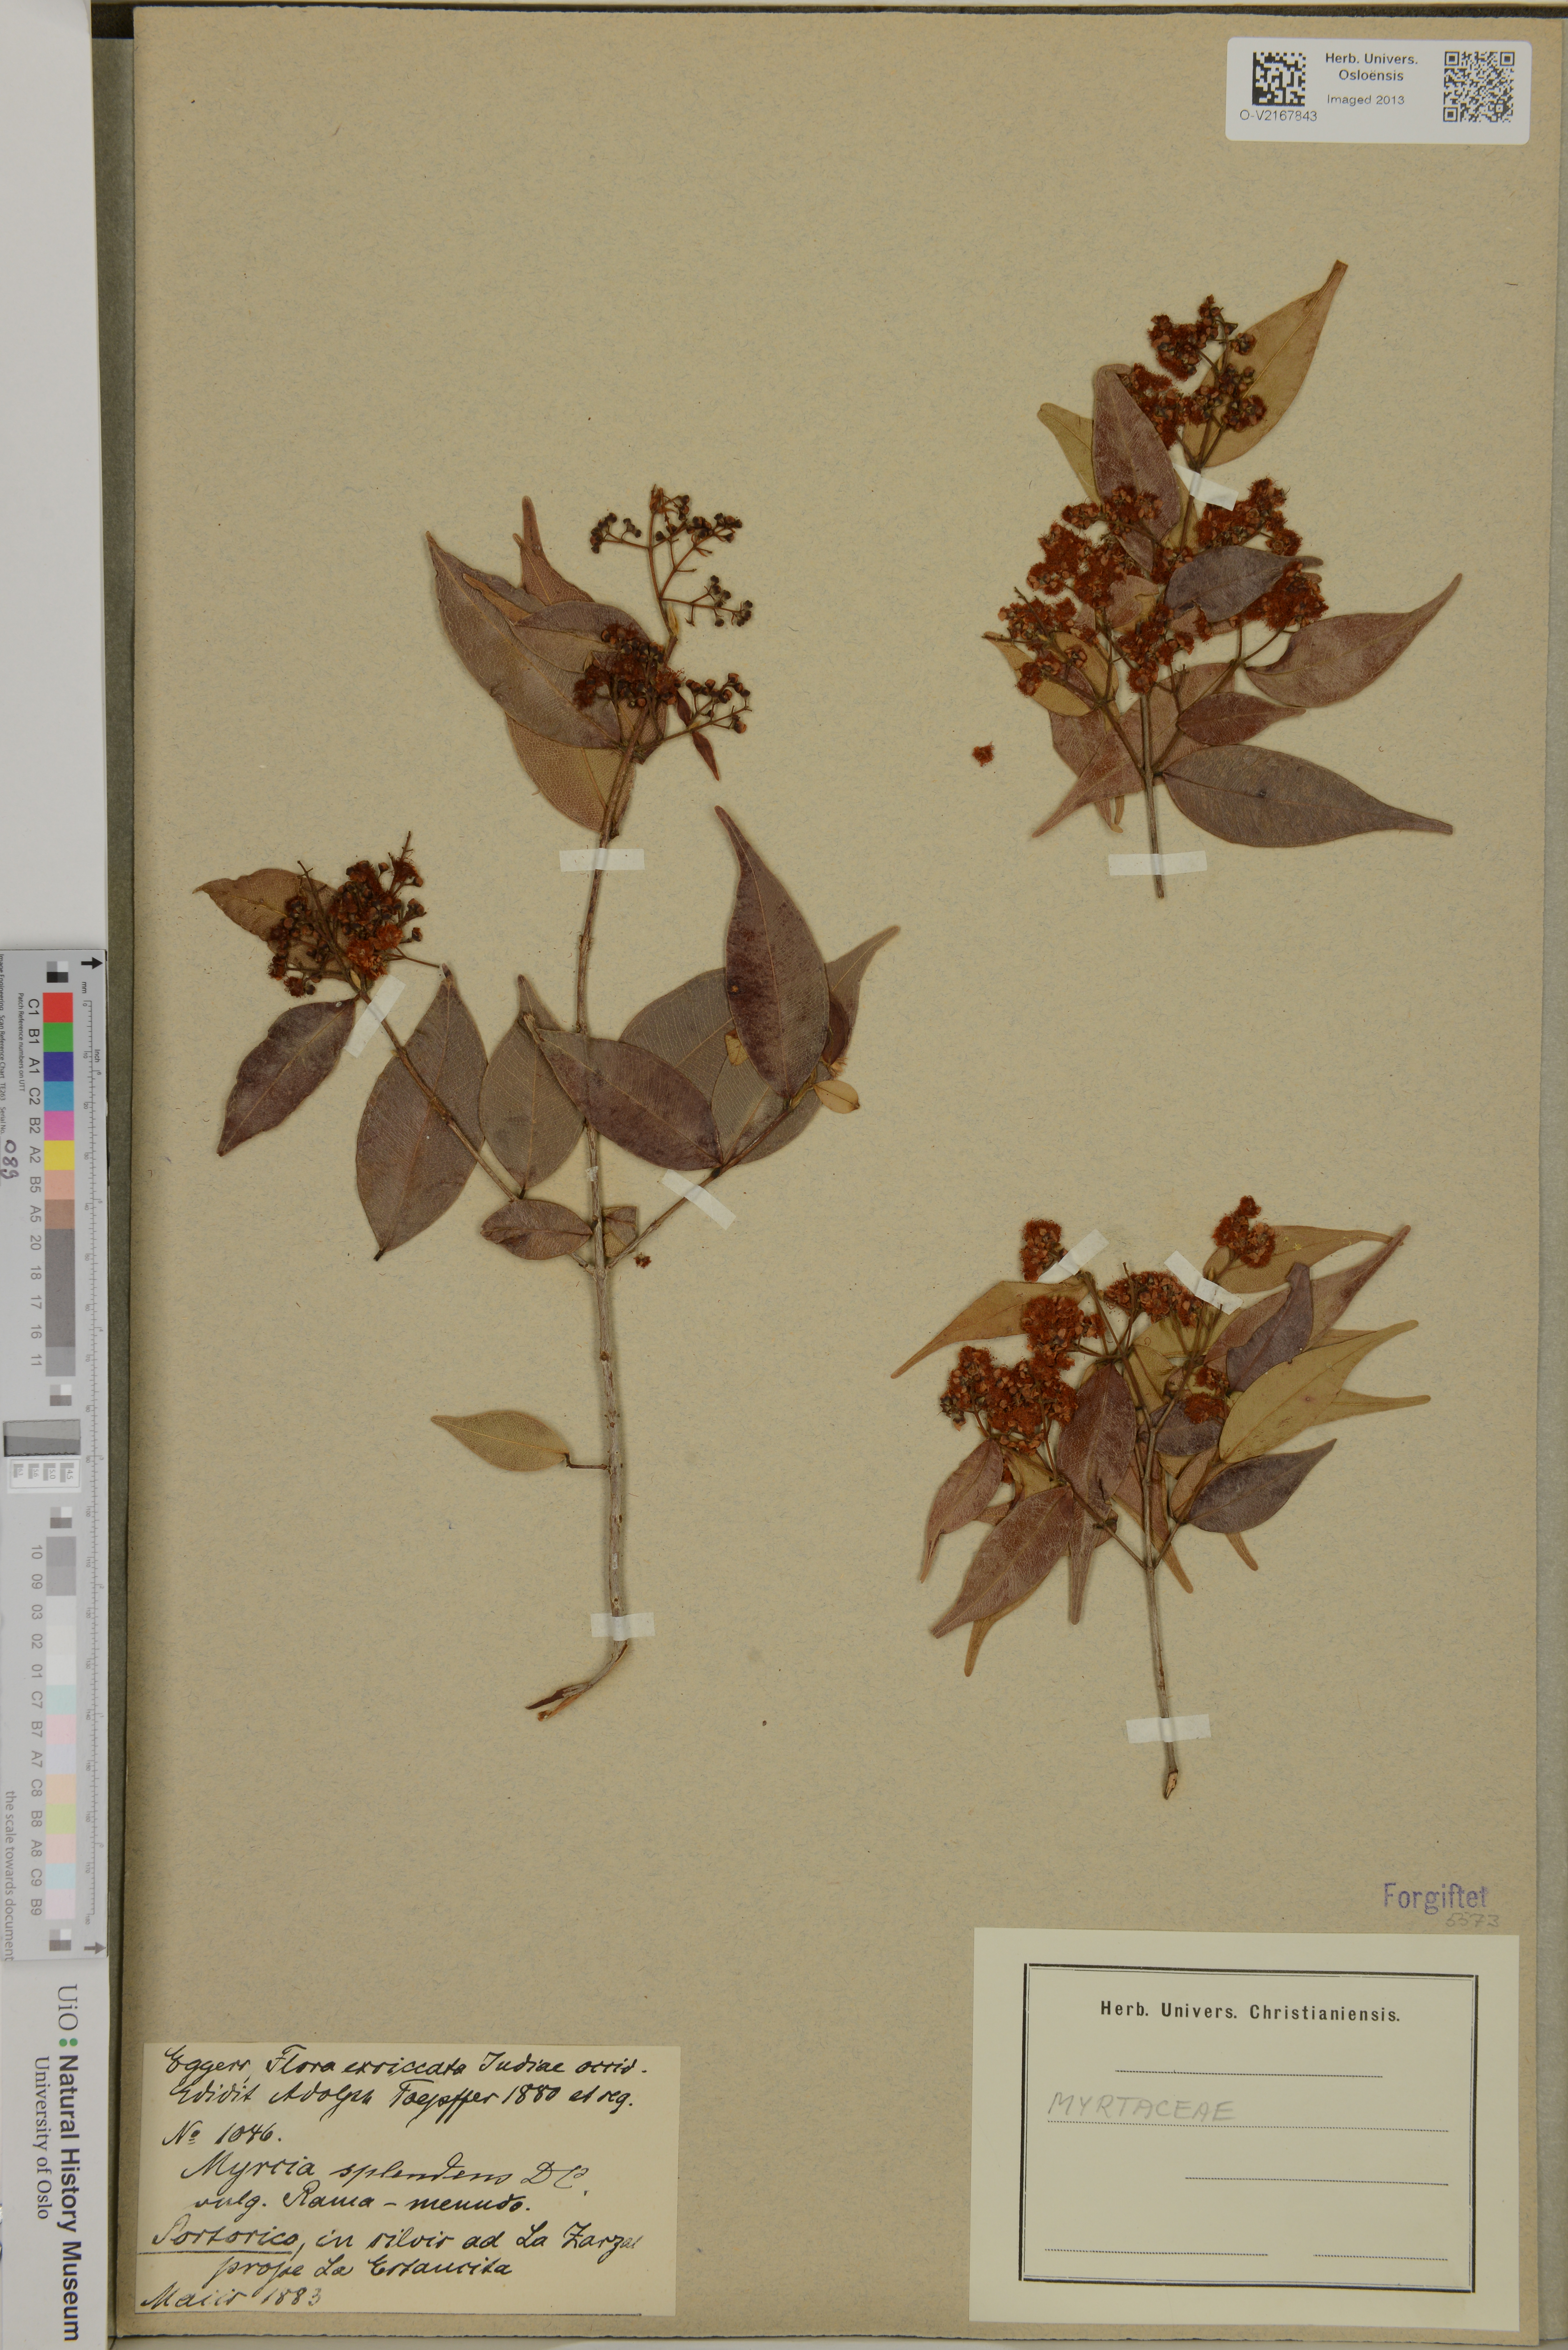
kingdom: Plantae
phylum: Tracheophyta
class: Magnoliopsida
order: Myrtales
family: Myrtaceae
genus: Myrcia
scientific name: Myrcia splendens
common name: Surinam cherry
